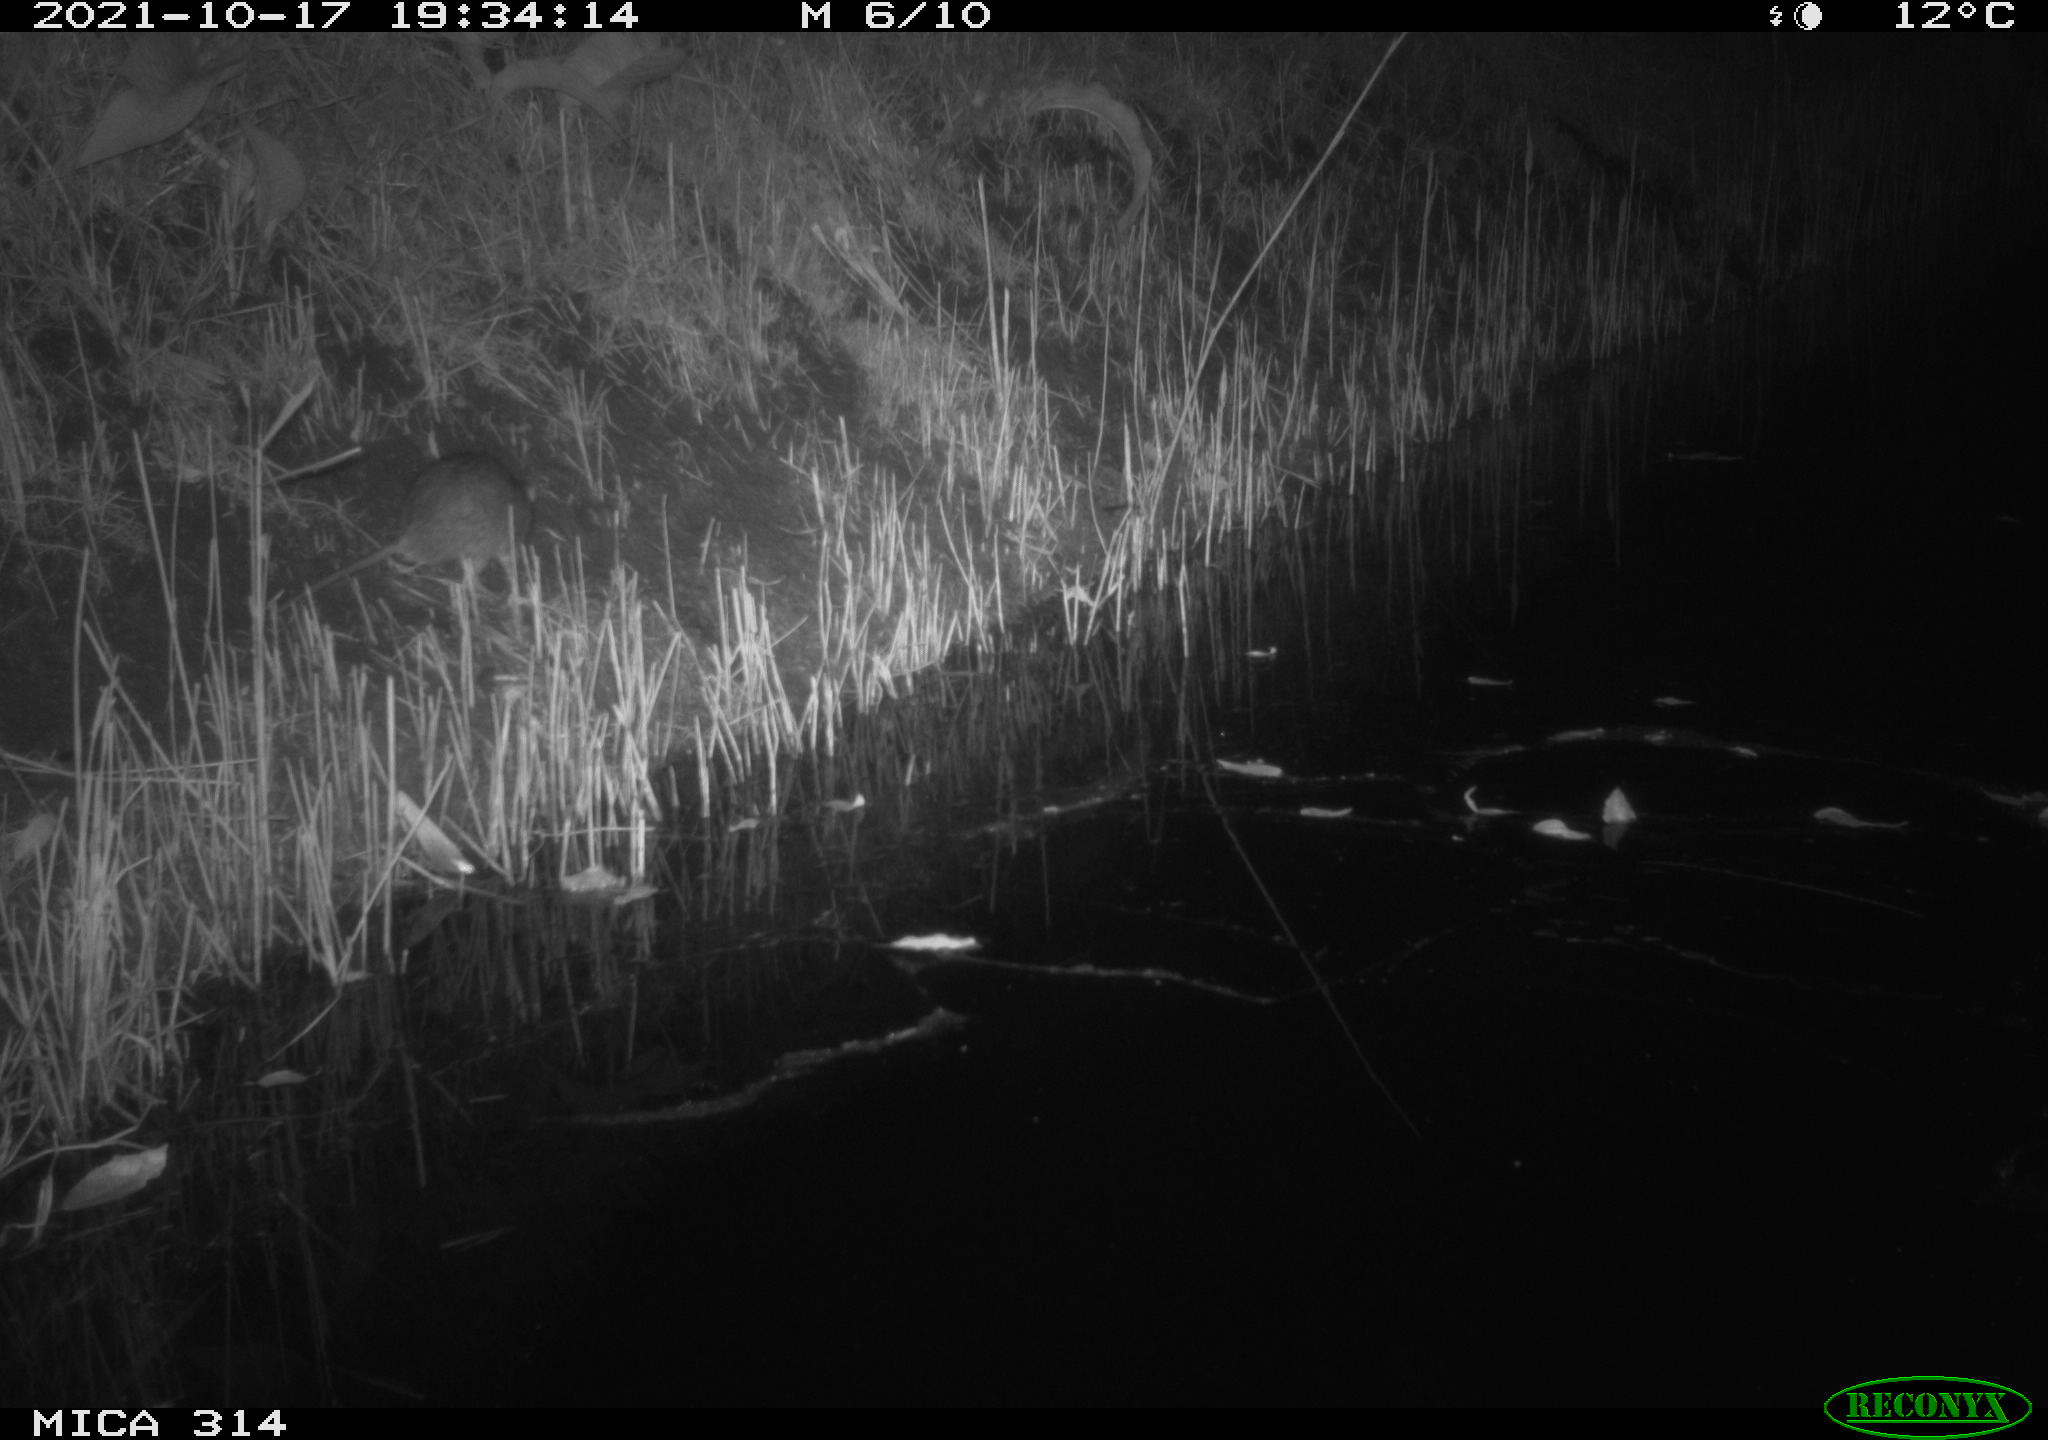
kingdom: Animalia
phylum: Chordata
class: Mammalia
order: Rodentia
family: Muridae
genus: Rattus
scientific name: Rattus norvegicus
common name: Brown rat
